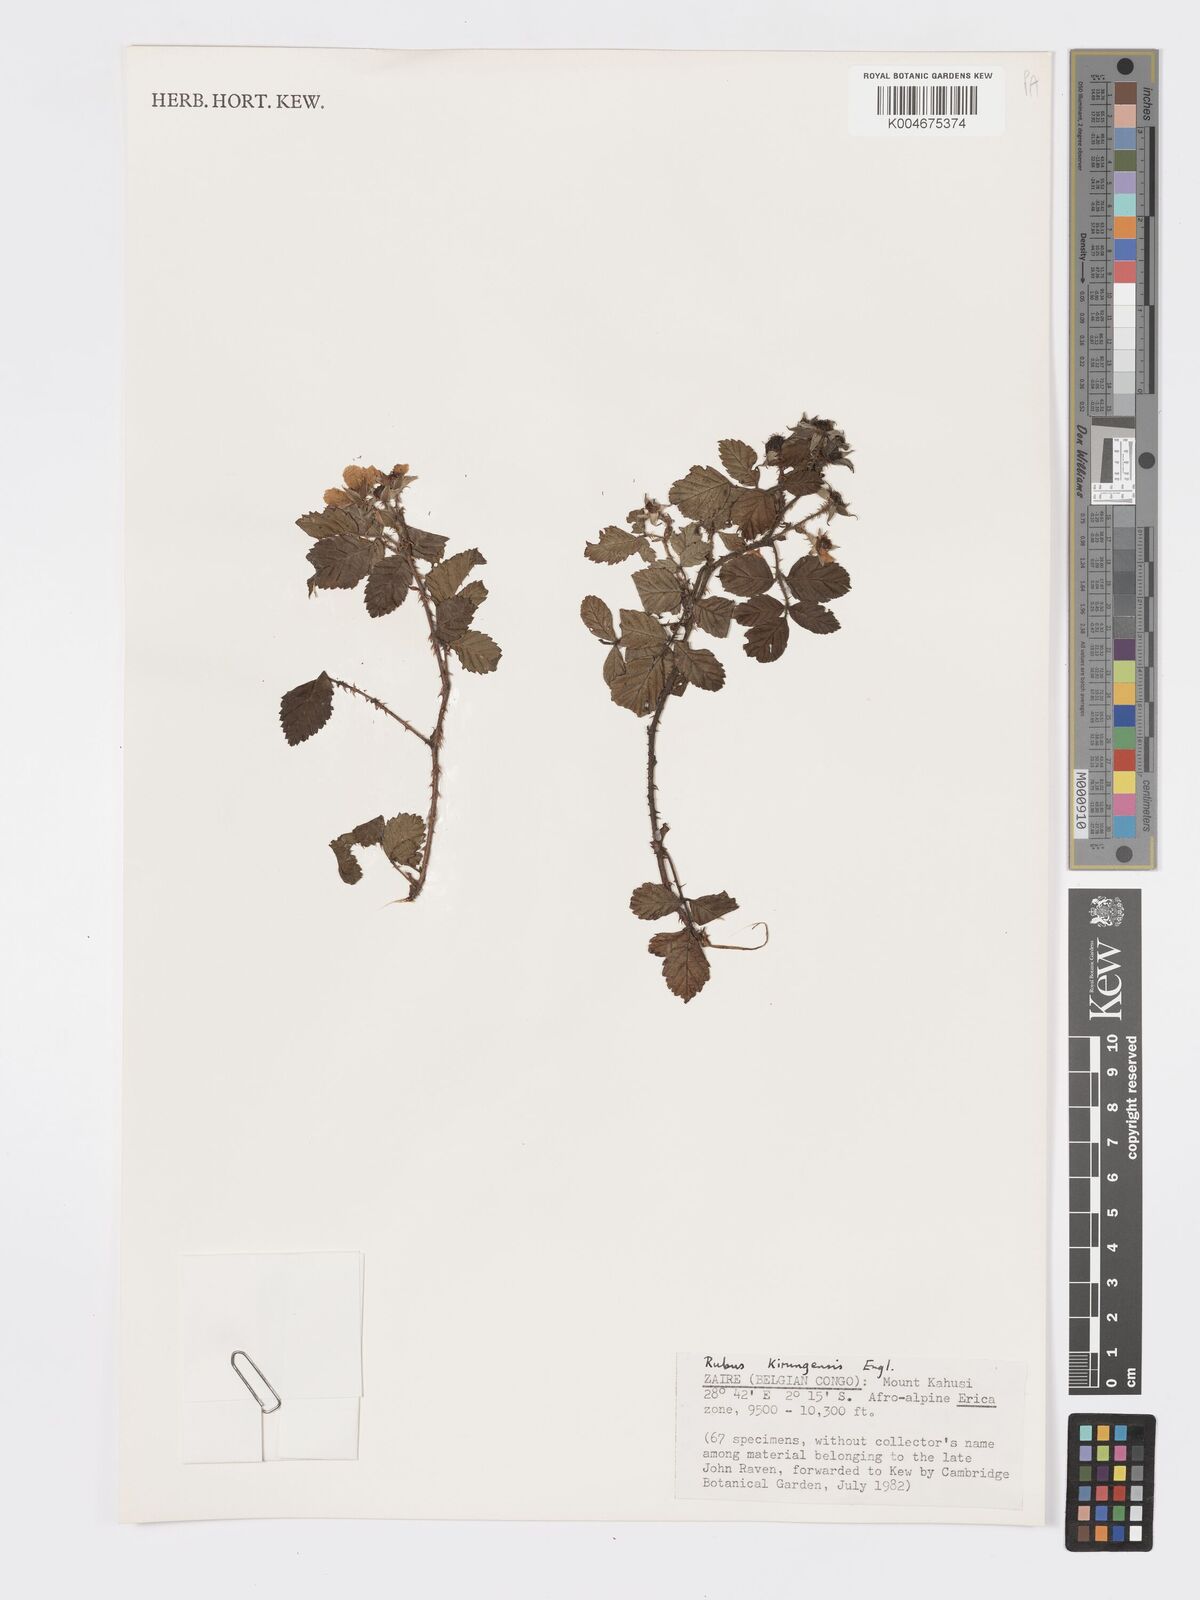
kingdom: Plantae
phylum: Tracheophyta
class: Magnoliopsida
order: Rosales
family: Rosaceae
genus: Rubus
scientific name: Rubus kirungensis
